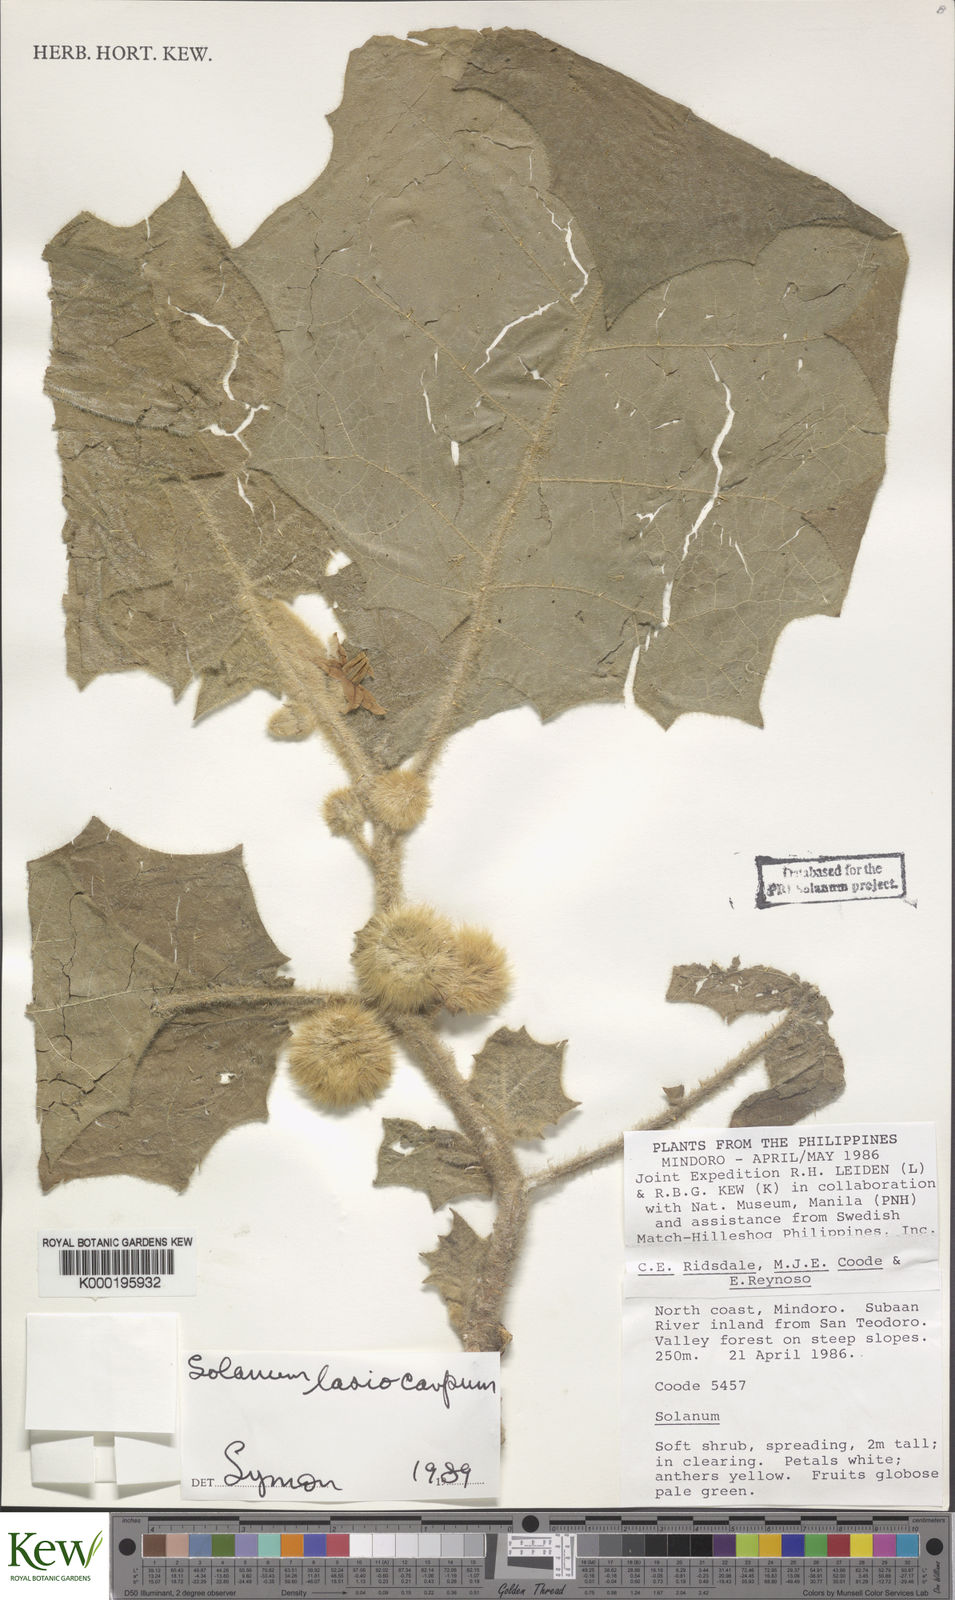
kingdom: Plantae
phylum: Tracheophyta
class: Magnoliopsida
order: Solanales
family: Solanaceae
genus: Solanum
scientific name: Solanum lasiocarpum
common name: Indian nightshade
